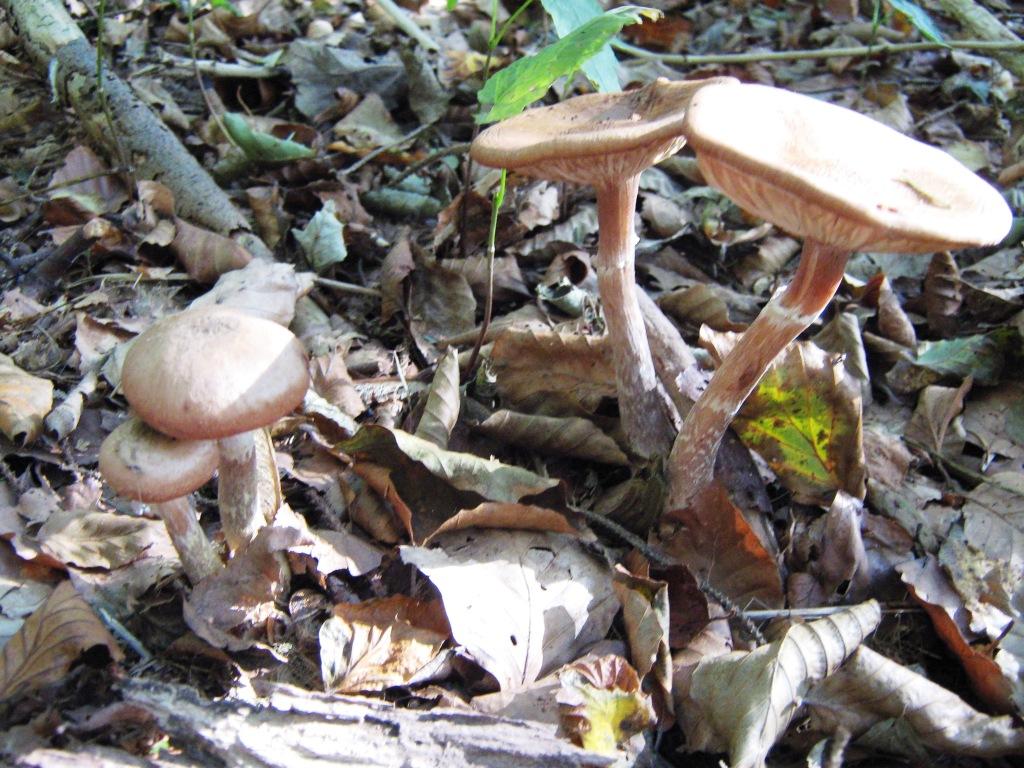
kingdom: Fungi
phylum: Basidiomycota
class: Agaricomycetes
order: Agaricales
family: Physalacriaceae
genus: Armillaria
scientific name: Armillaria lutea
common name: køllestokket honningsvamp
